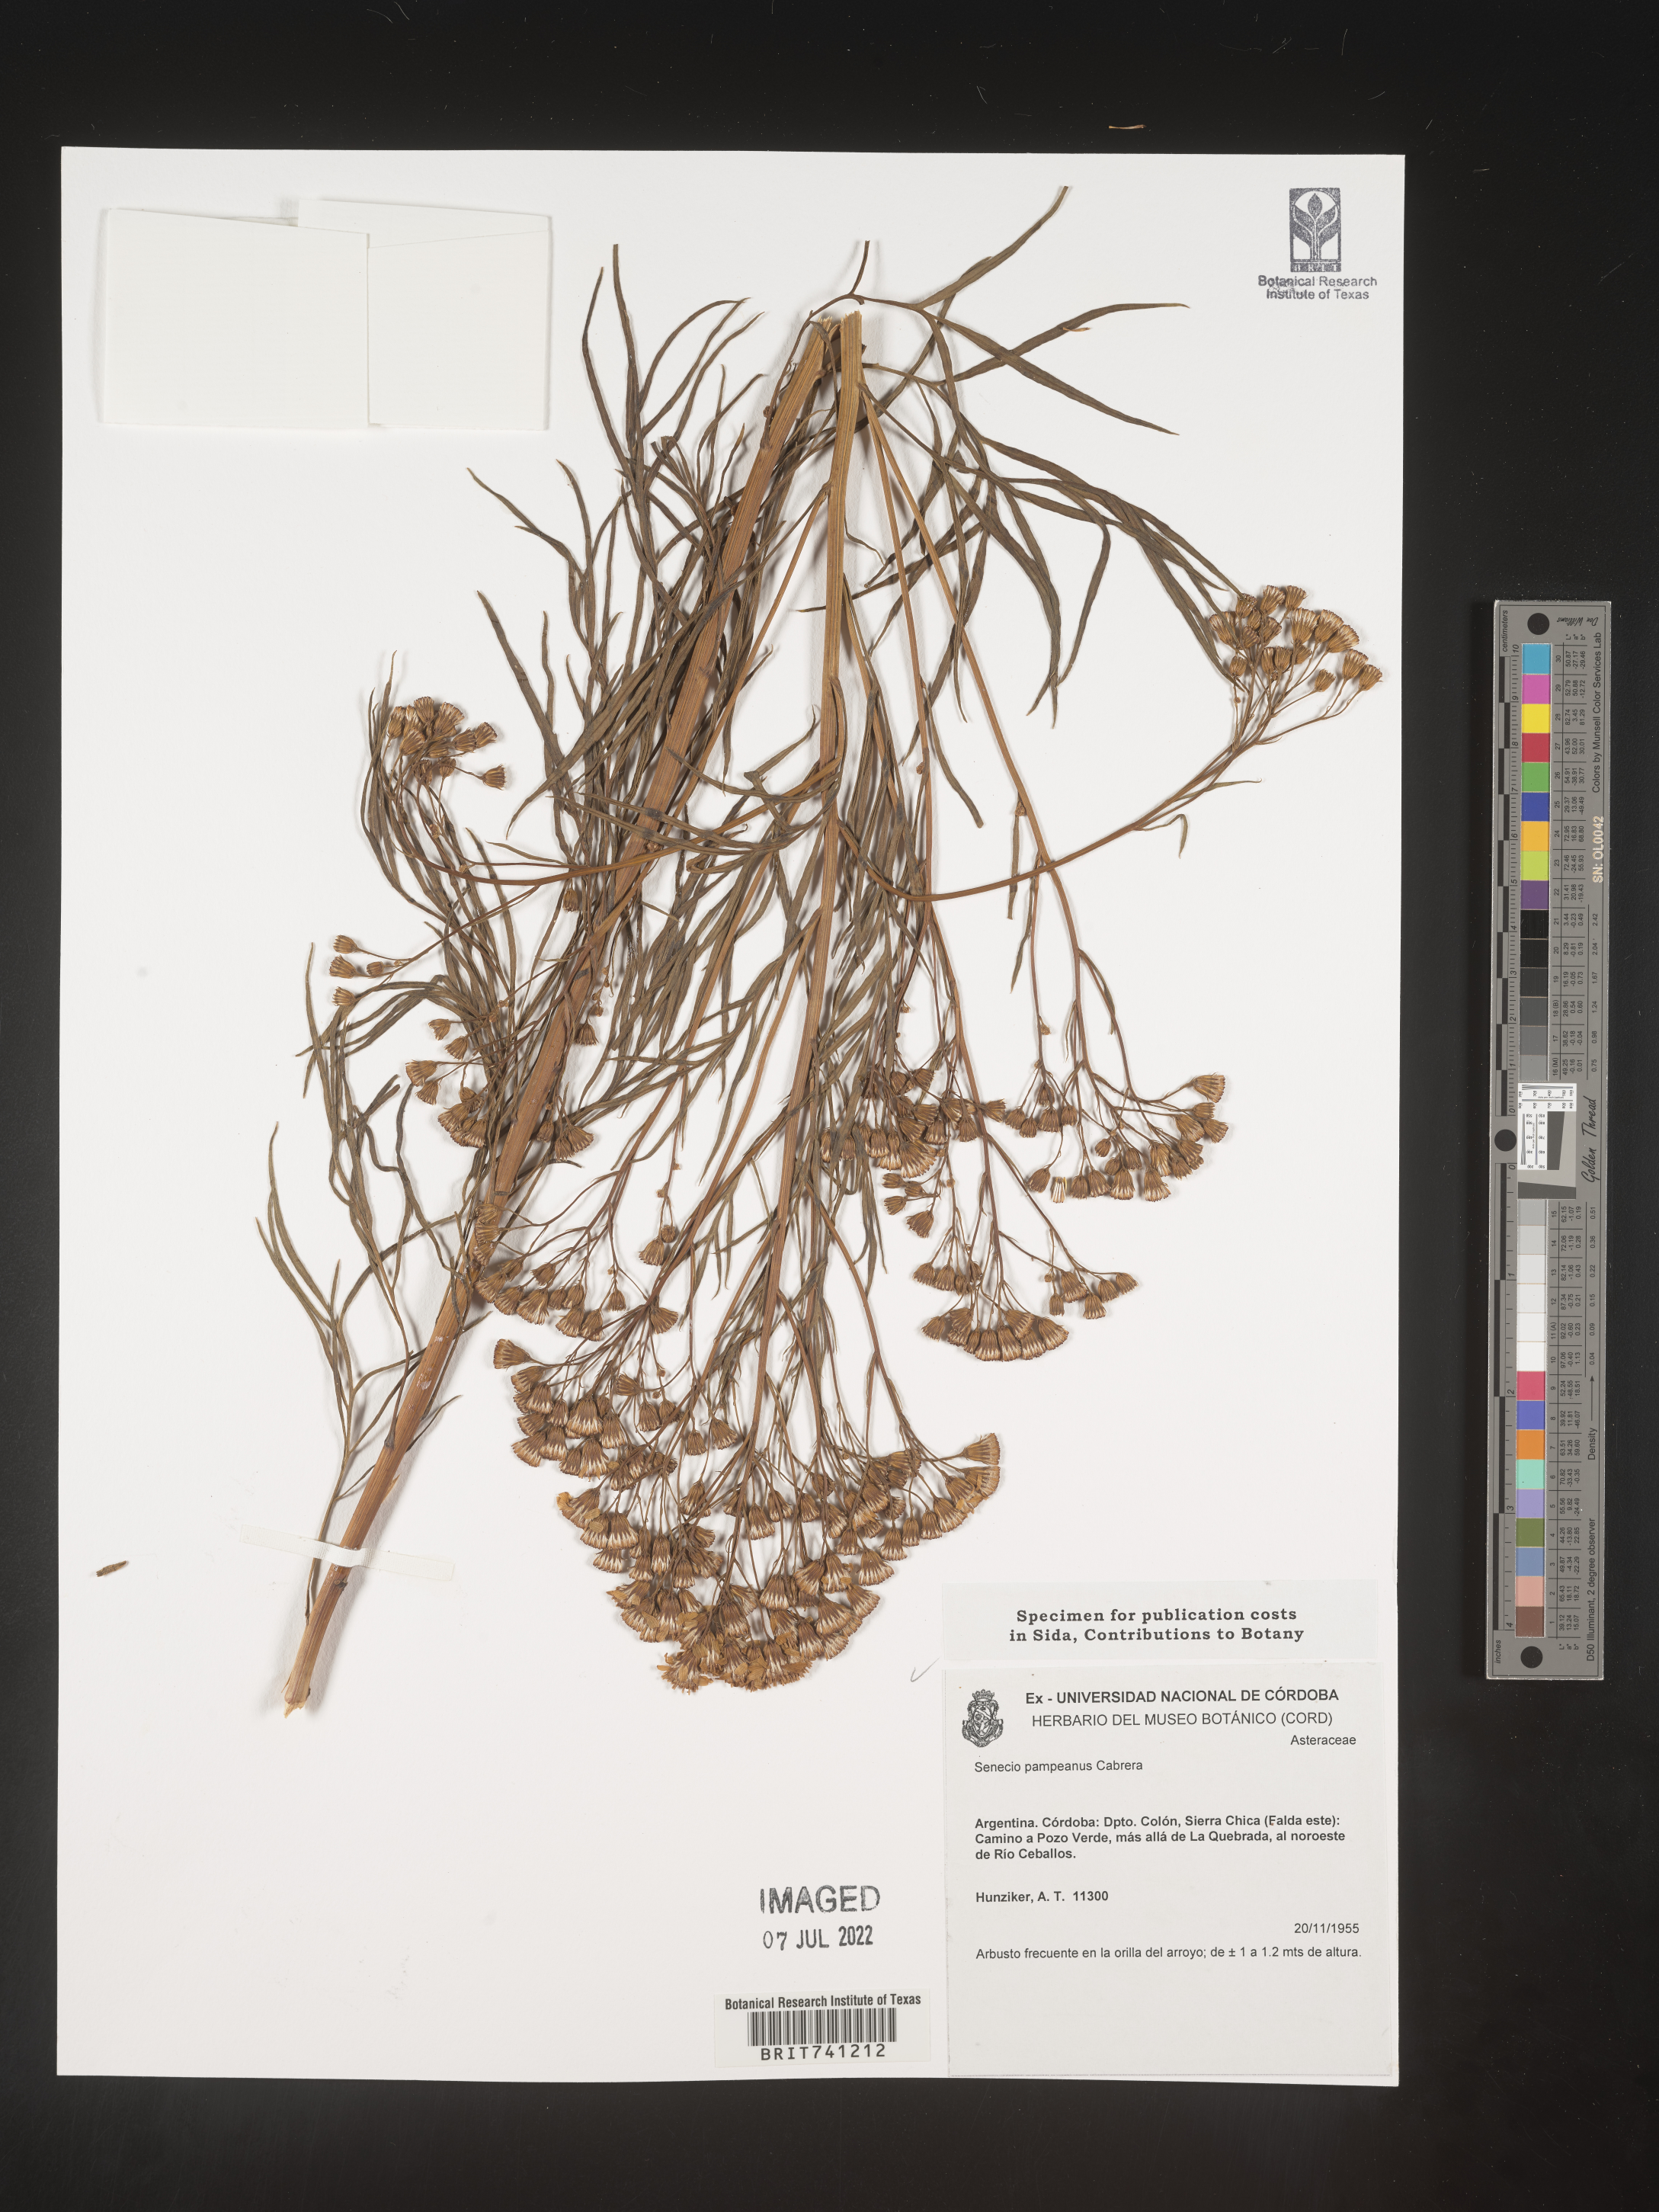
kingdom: Plantae
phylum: Tracheophyta
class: Magnoliopsida
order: Asterales
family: Asteraceae
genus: Senecio
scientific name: Senecio
